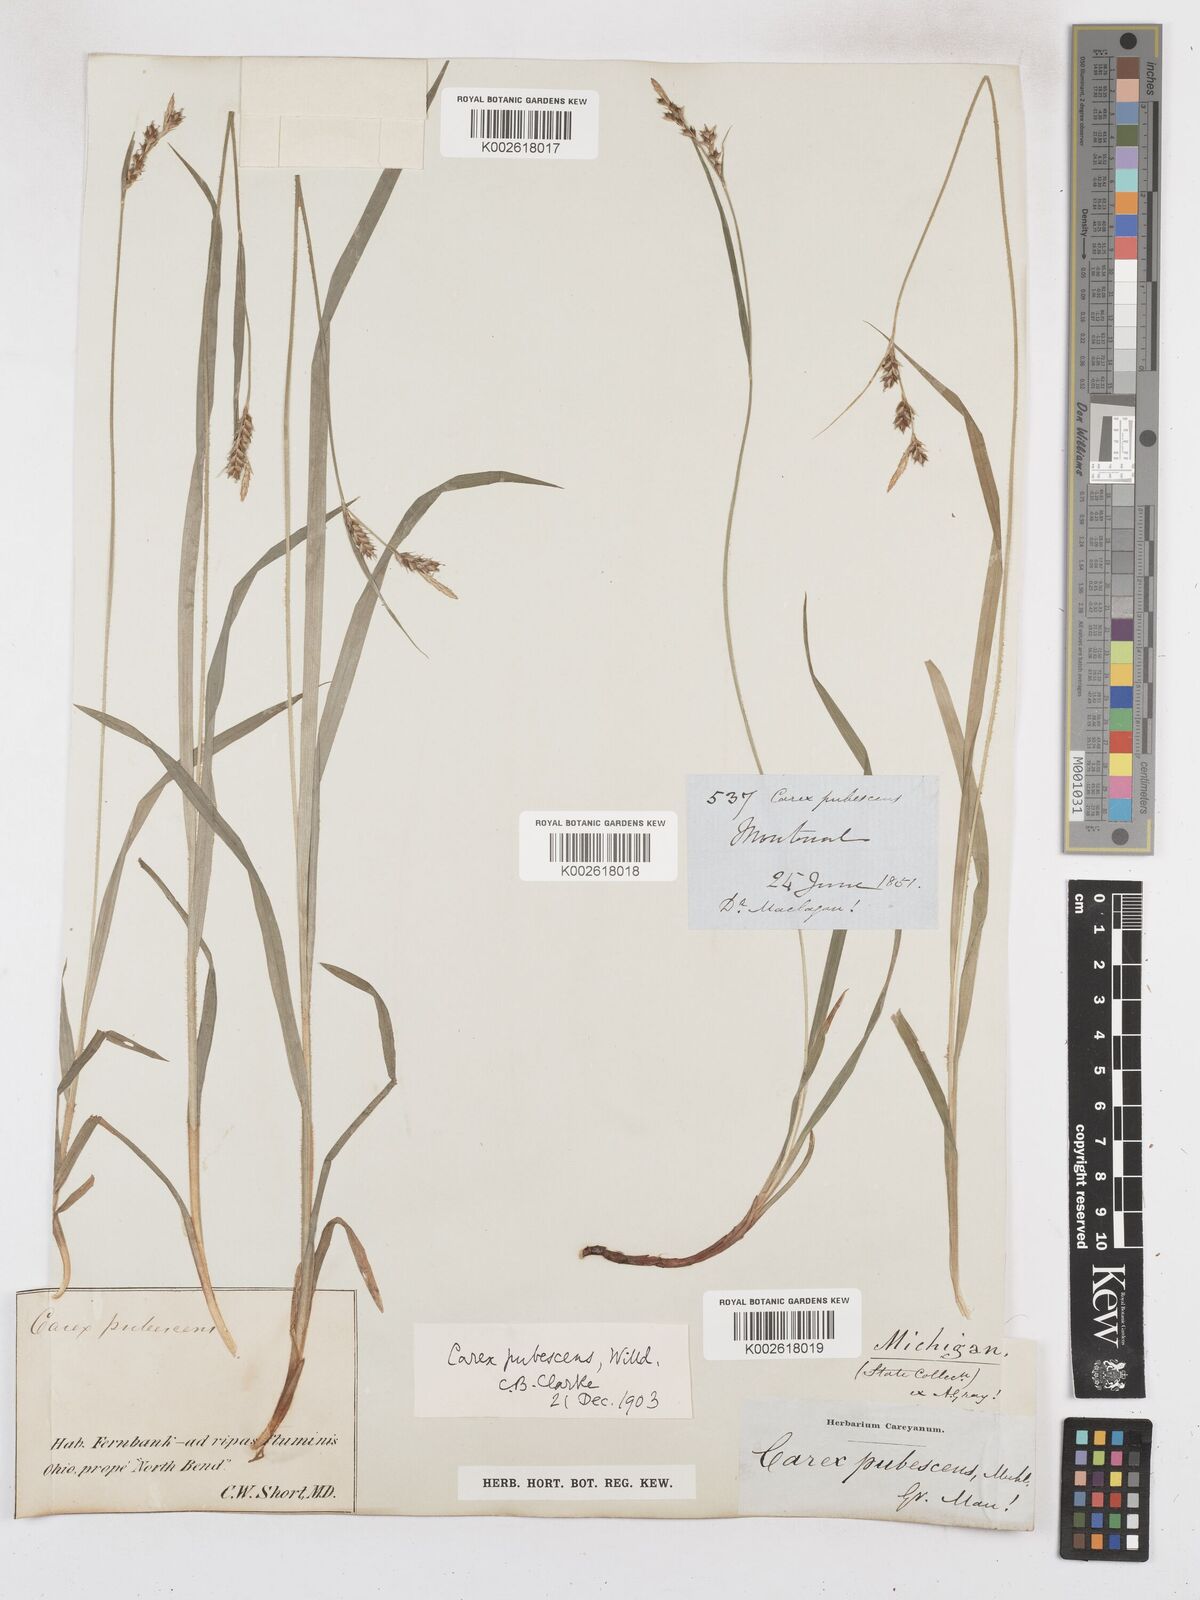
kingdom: Plantae
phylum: Tracheophyta
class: Liliopsida
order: Poales
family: Cyperaceae
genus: Carex
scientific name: Carex hirtifolia
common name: Hairy sedge
